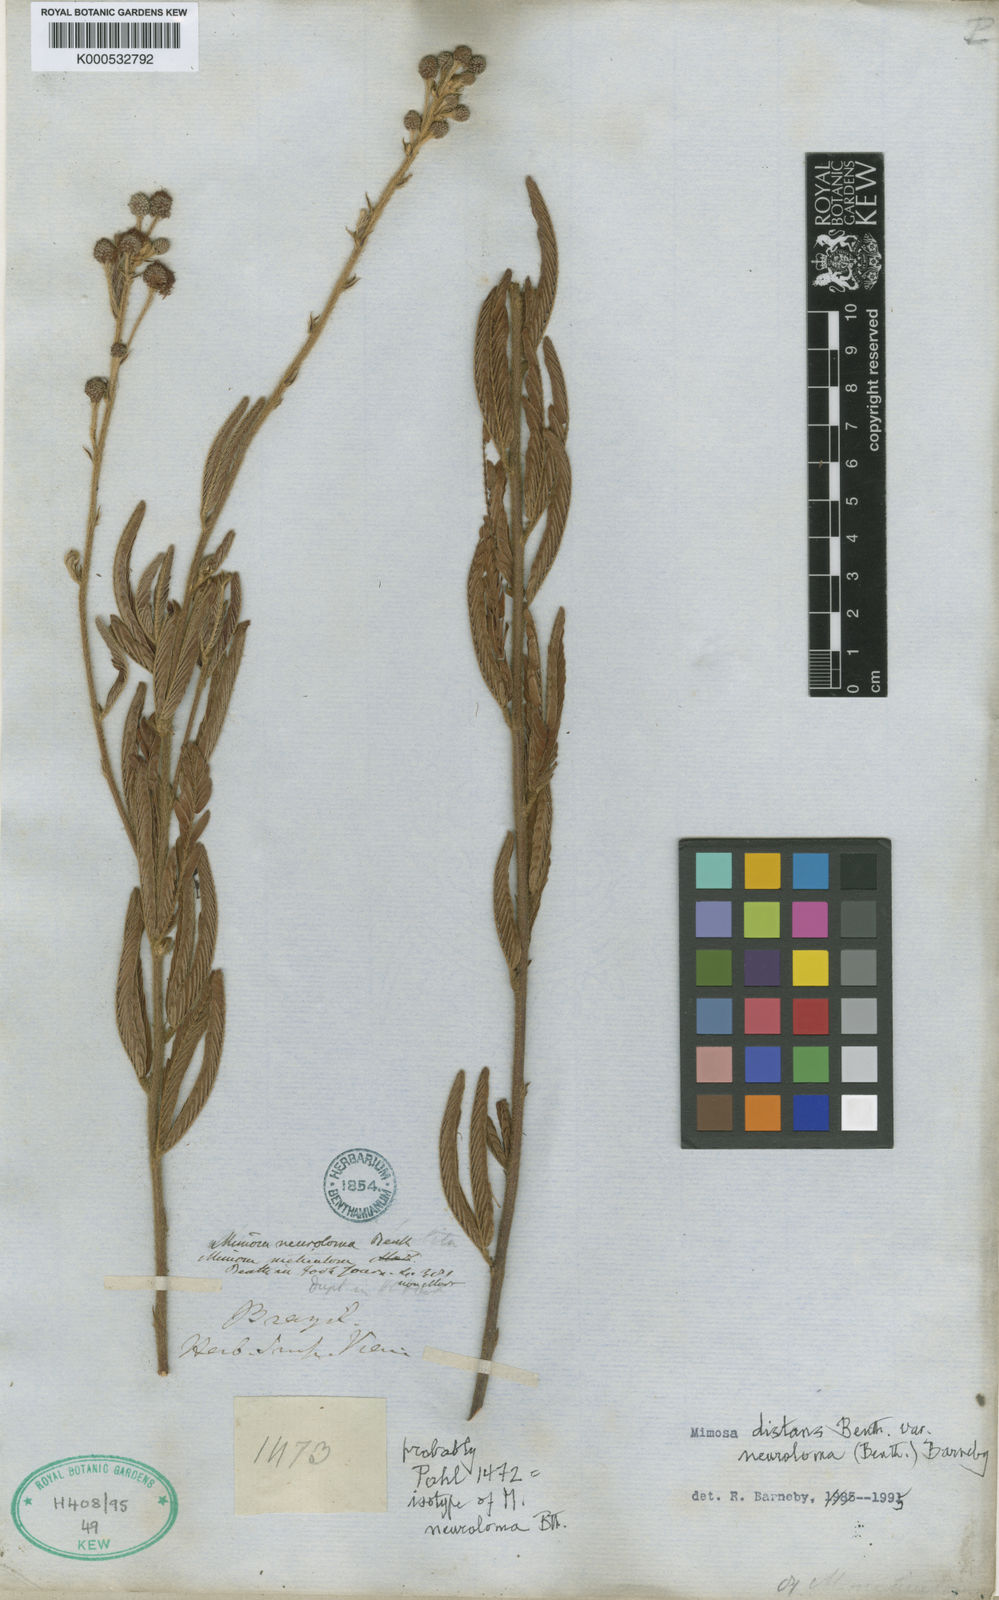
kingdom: Plantae
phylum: Tracheophyta
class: Magnoliopsida
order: Fabales
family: Fabaceae
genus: Mimosa
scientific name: Mimosa distans
